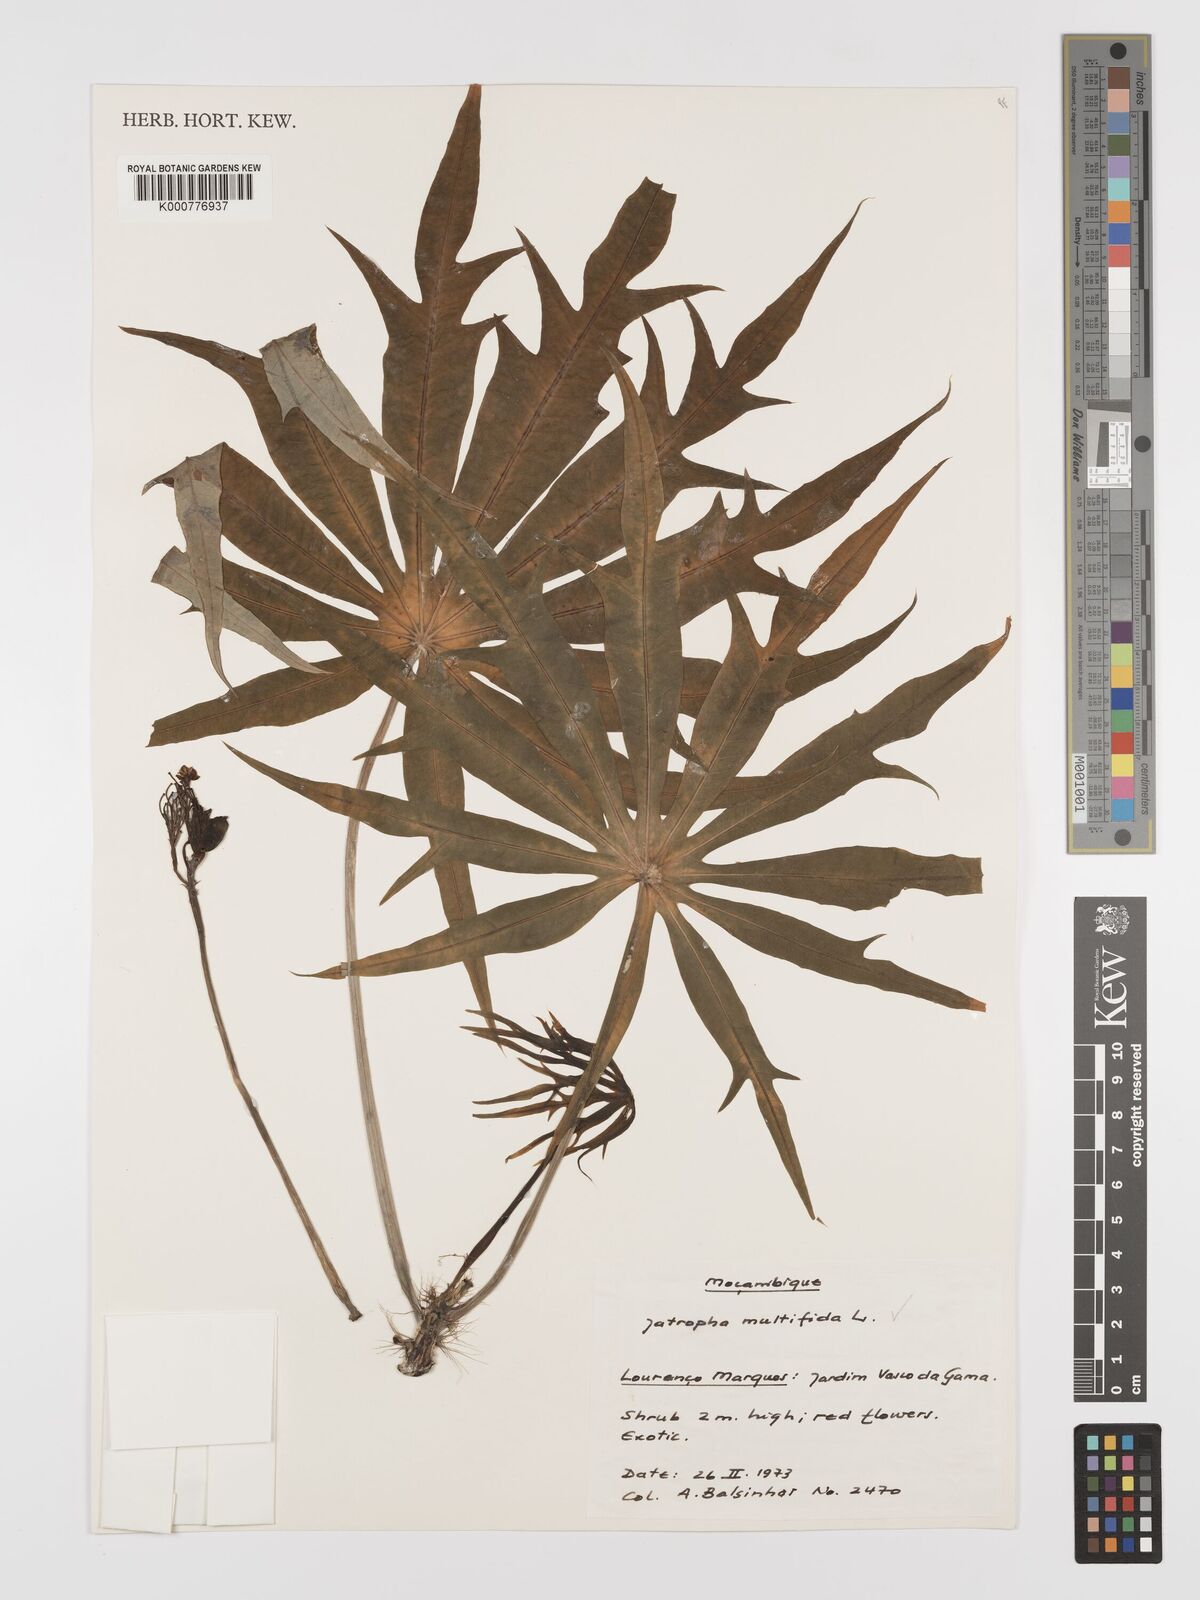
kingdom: Plantae
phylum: Tracheophyta
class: Magnoliopsida
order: Malpighiales
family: Euphorbiaceae
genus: Jatropha
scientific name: Jatropha multifida
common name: Coralbush
